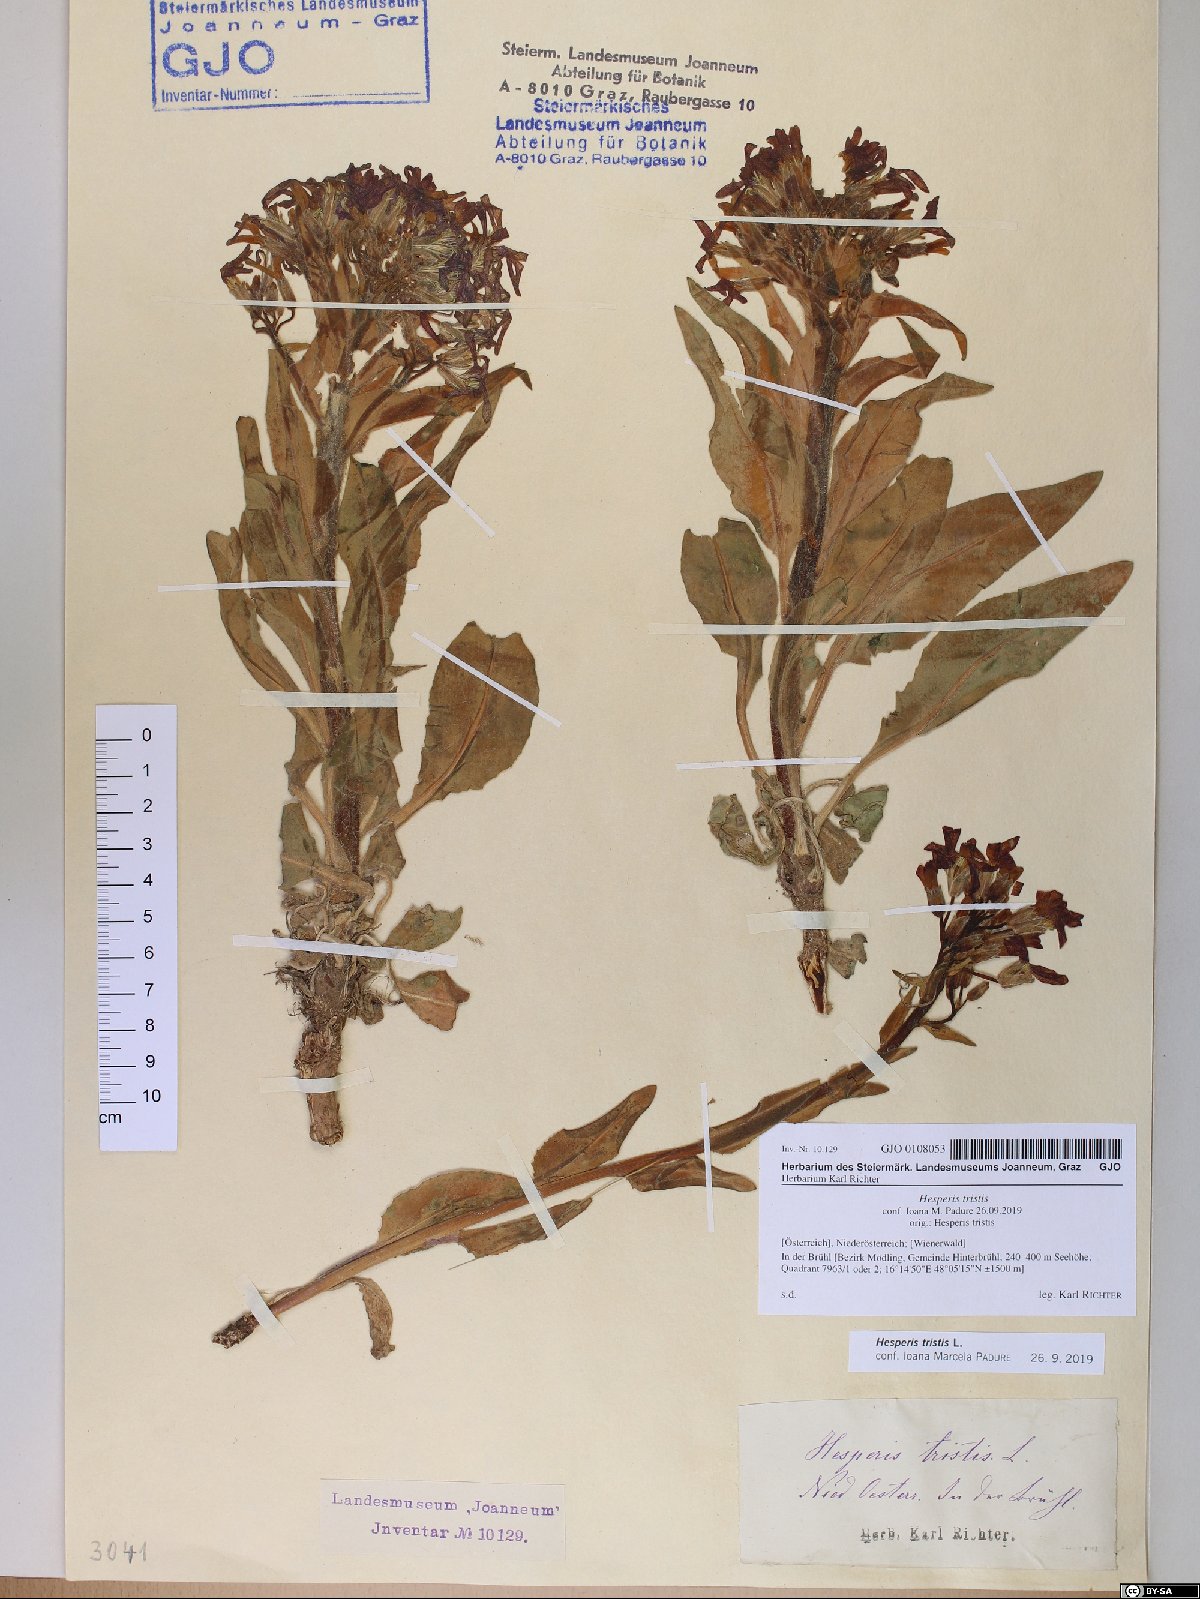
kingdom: Plantae
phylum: Tracheophyta
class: Magnoliopsida
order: Brassicales
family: Brassicaceae
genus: Hesperis
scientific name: Hesperis tristis
